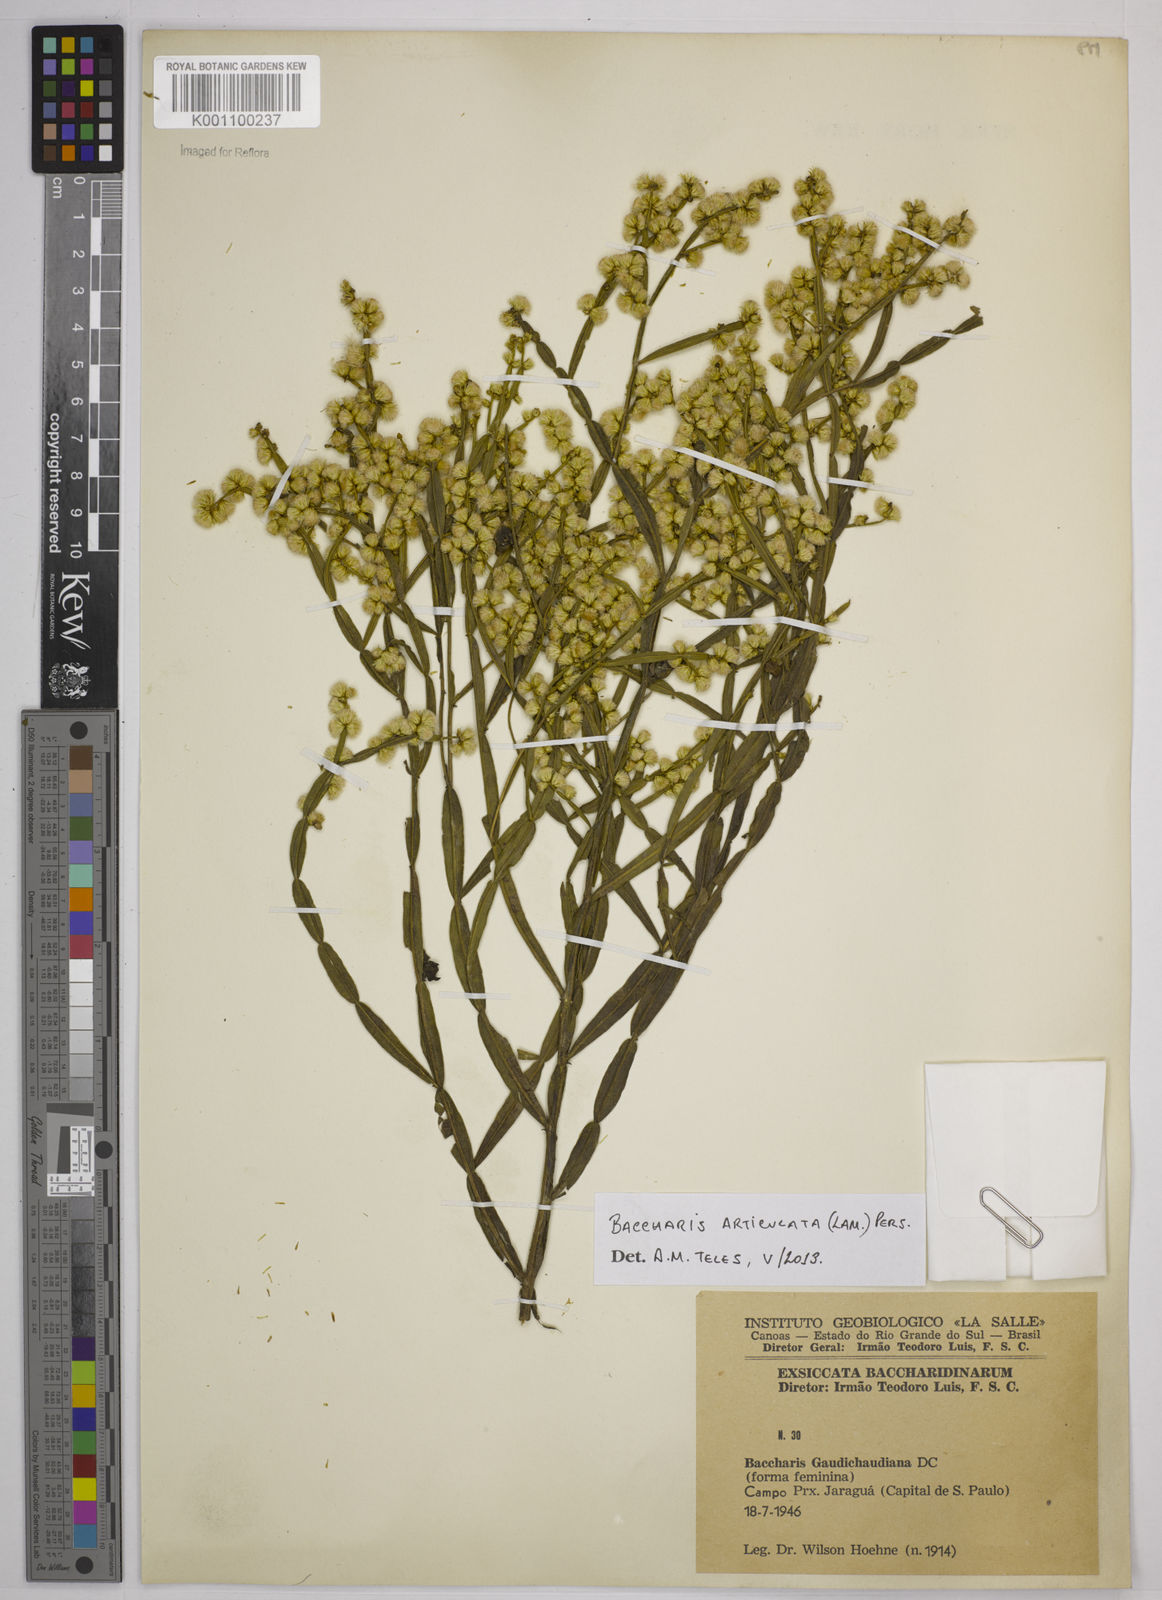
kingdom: Plantae
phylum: Tracheophyta
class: Magnoliopsida
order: Asterales
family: Asteraceae
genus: Baccharis
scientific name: Baccharis
